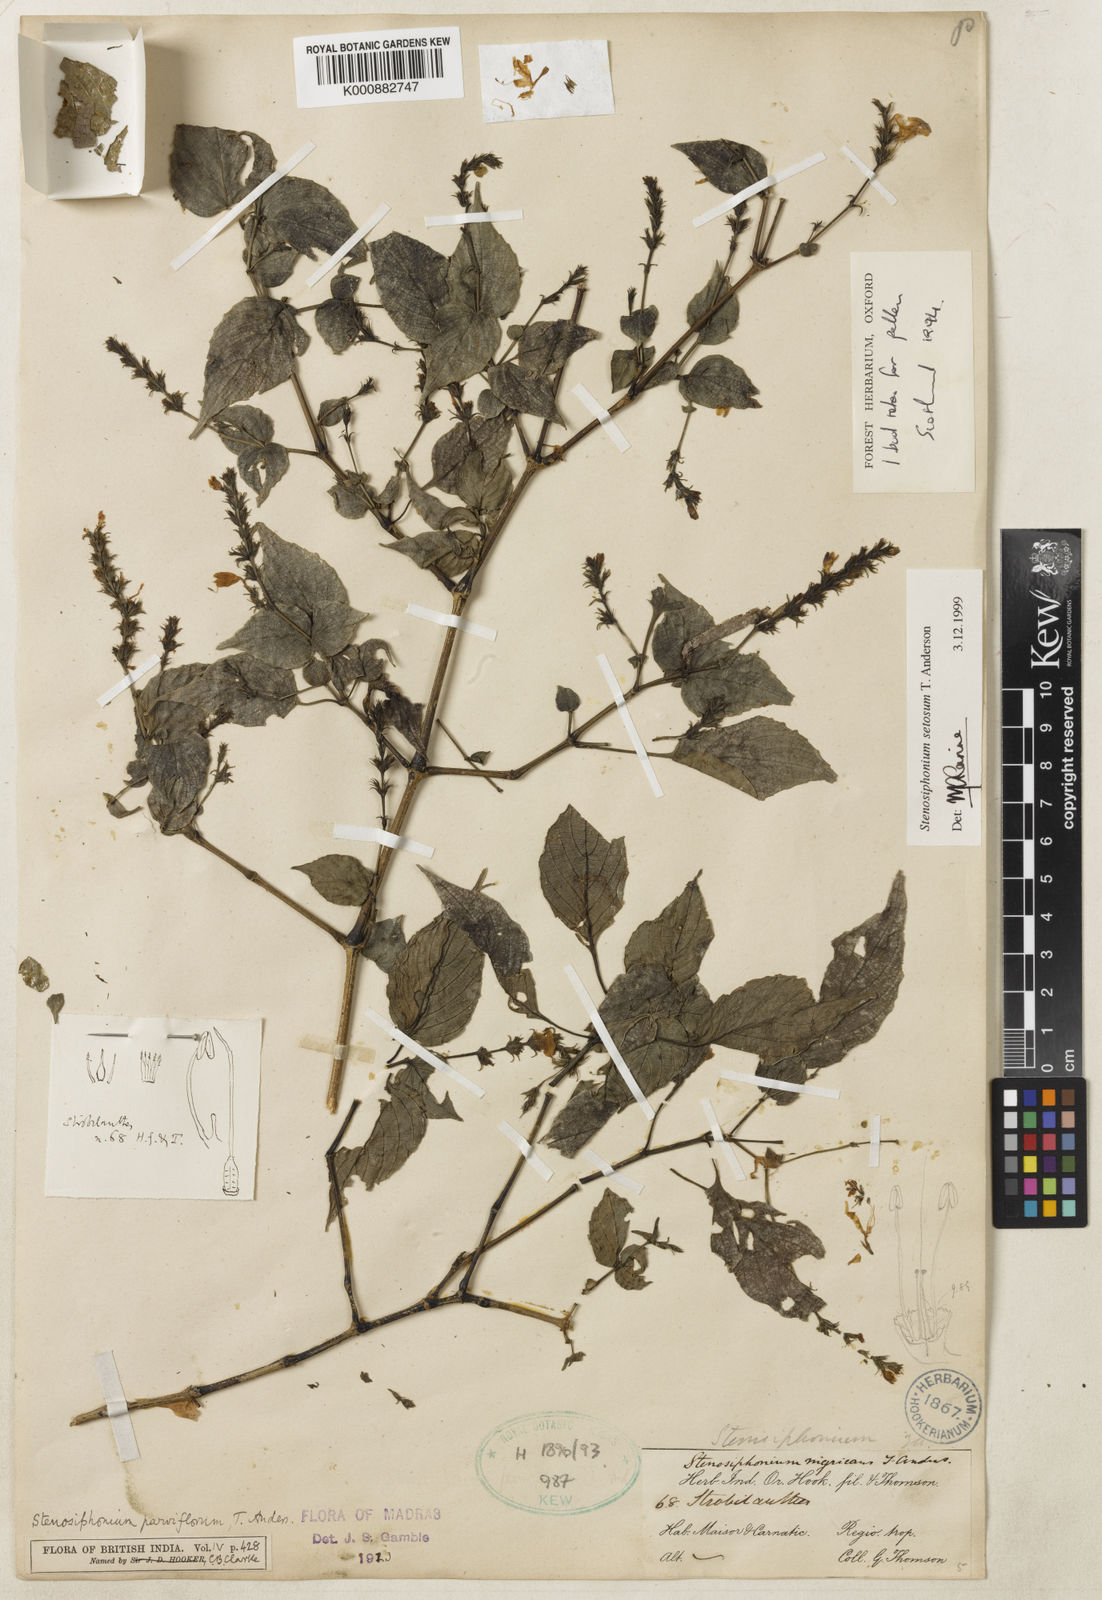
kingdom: Plantae
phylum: Tracheophyta
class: Magnoliopsida
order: Lamiales
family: Acanthaceae
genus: Strobilanthes
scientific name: Strobilanthes carinei
